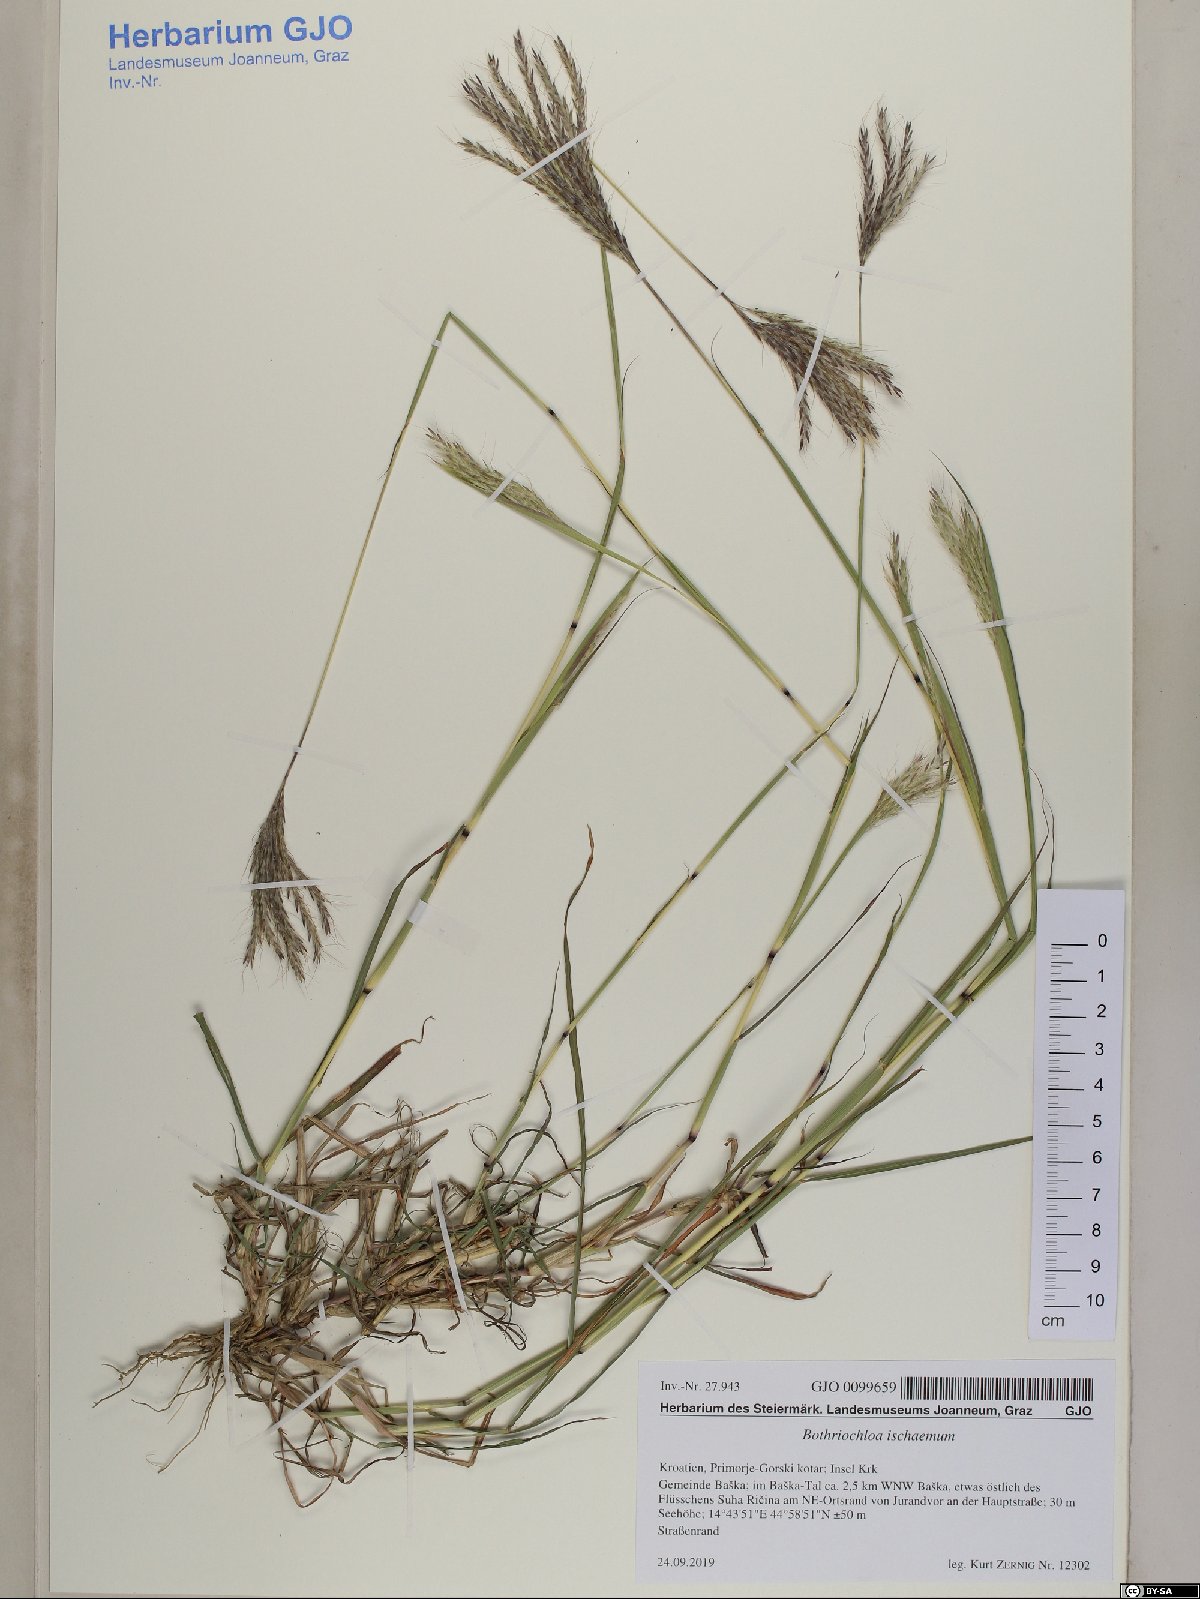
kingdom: Plantae
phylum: Tracheophyta
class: Liliopsida
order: Poales
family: Poaceae
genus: Bothriochloa
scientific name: Bothriochloa ischaemum
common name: Yellow bluestem
